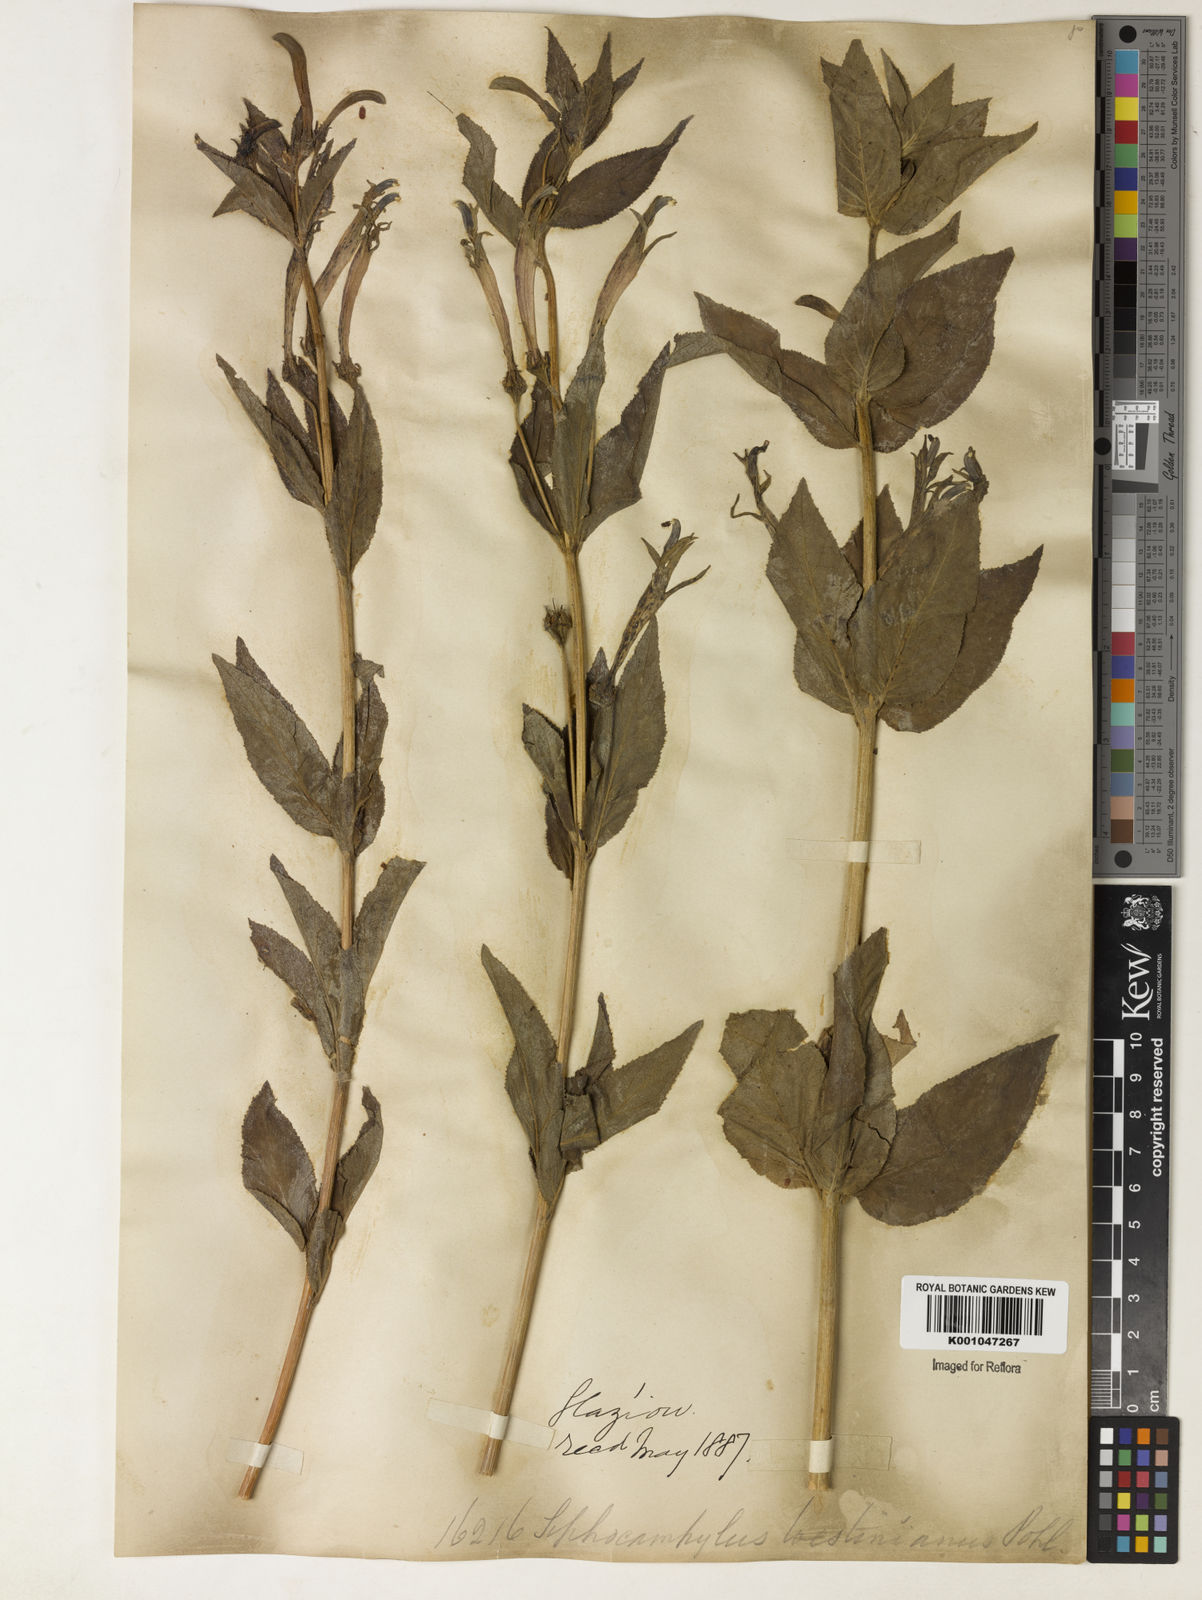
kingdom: Plantae
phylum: Tracheophyta
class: Magnoliopsida
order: Asterales
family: Campanulaceae
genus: Siphocampylus
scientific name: Siphocampylus westinianus
